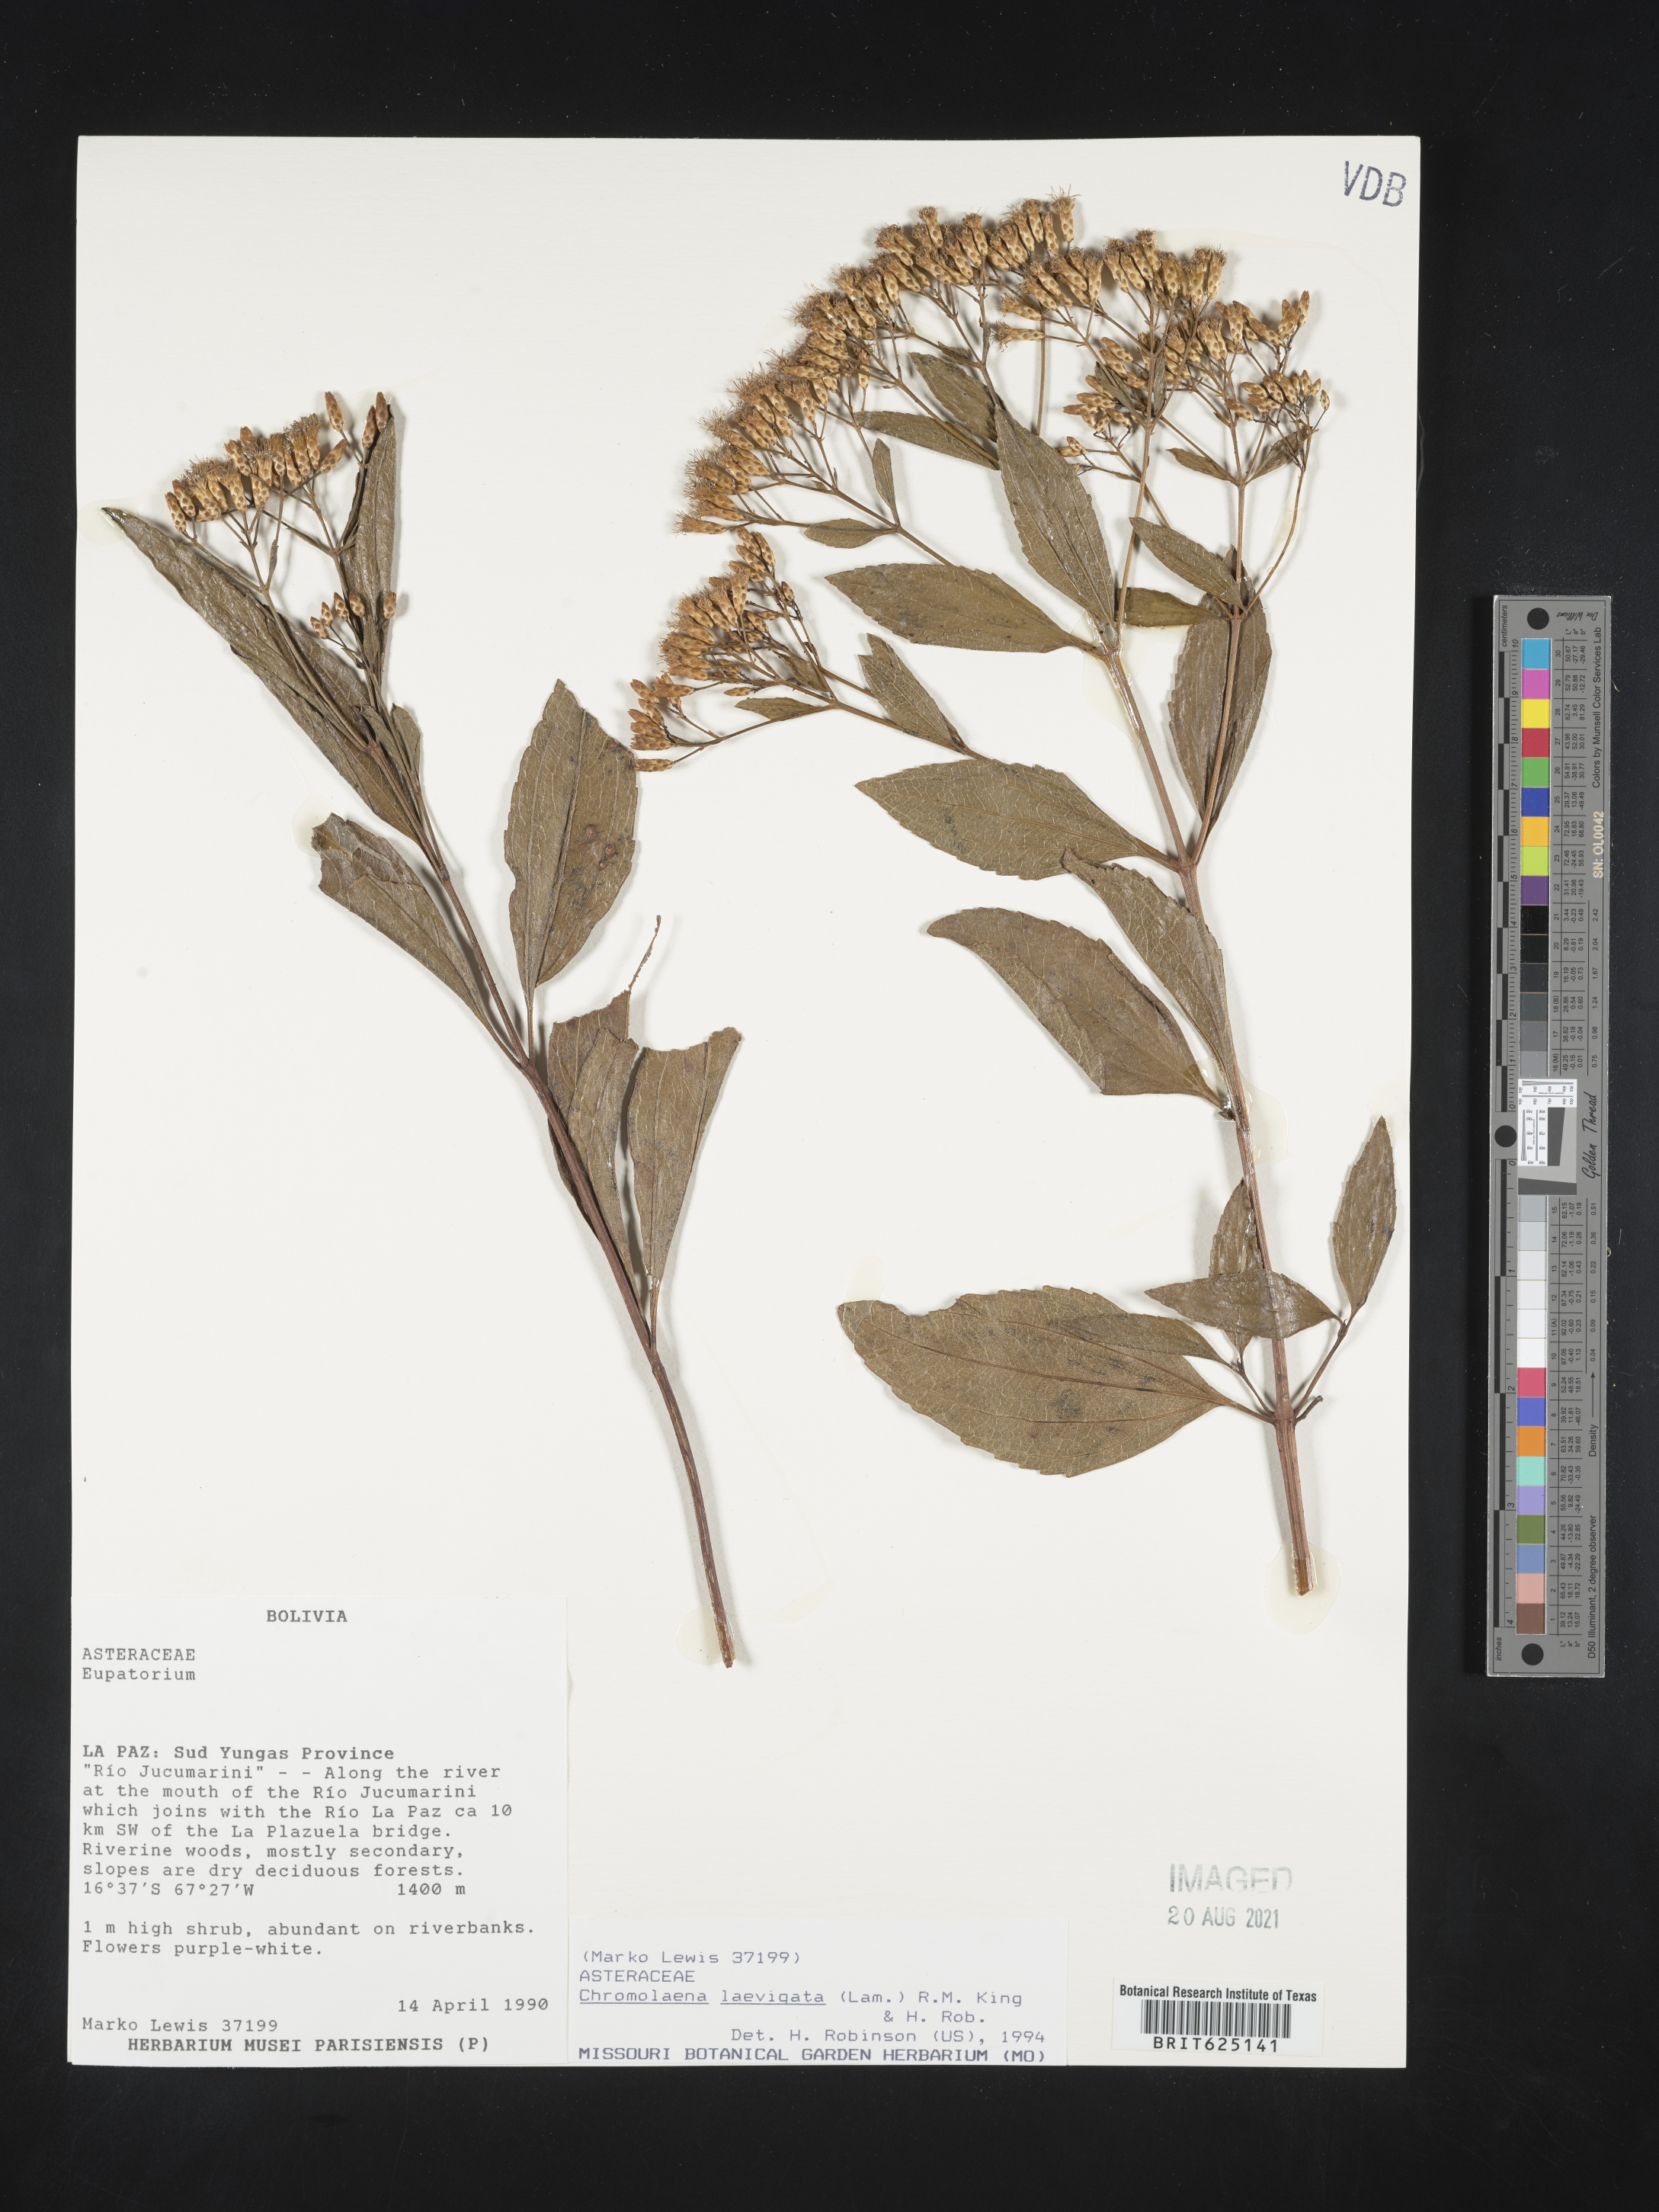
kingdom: Plantae
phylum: Tracheophyta
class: Magnoliopsida
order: Asterales
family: Asteraceae
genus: Chromolaena
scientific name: Chromolaena laevigata
